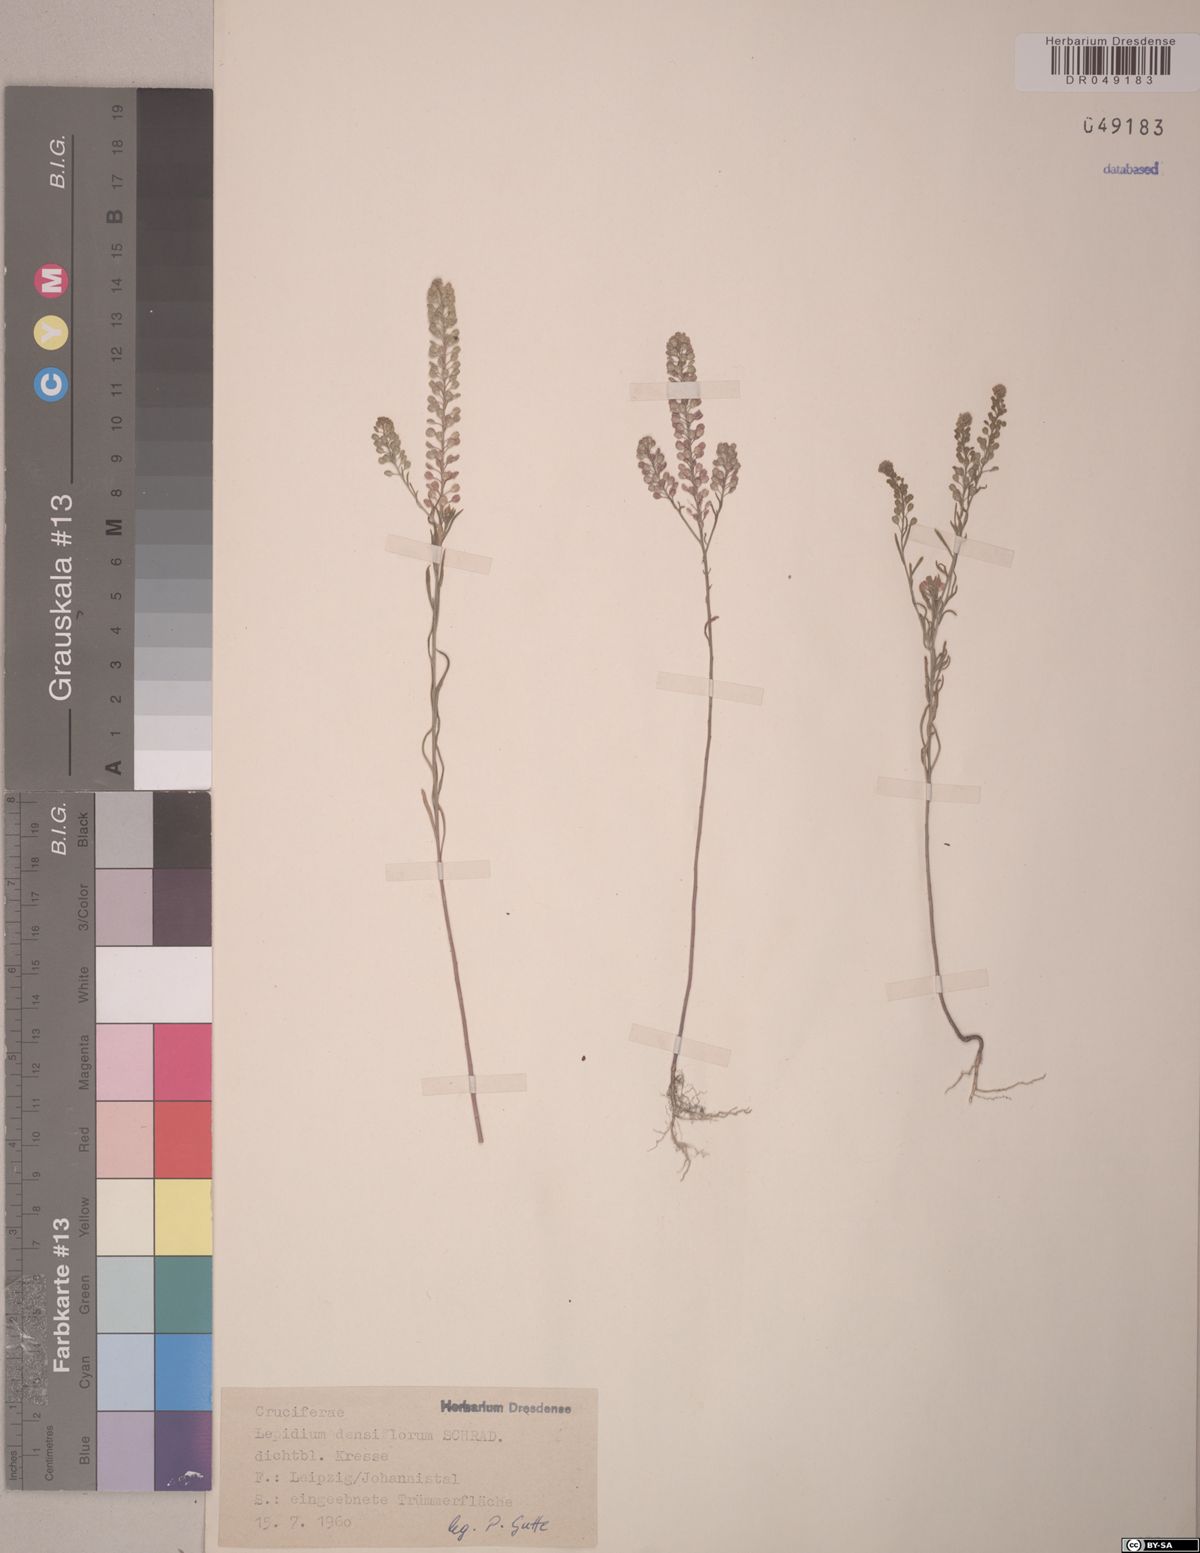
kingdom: Plantae
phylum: Tracheophyta
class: Magnoliopsida
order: Brassicales
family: Brassicaceae
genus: Lepidium
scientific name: Lepidium densiflorum
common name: Miner's pepperwort
